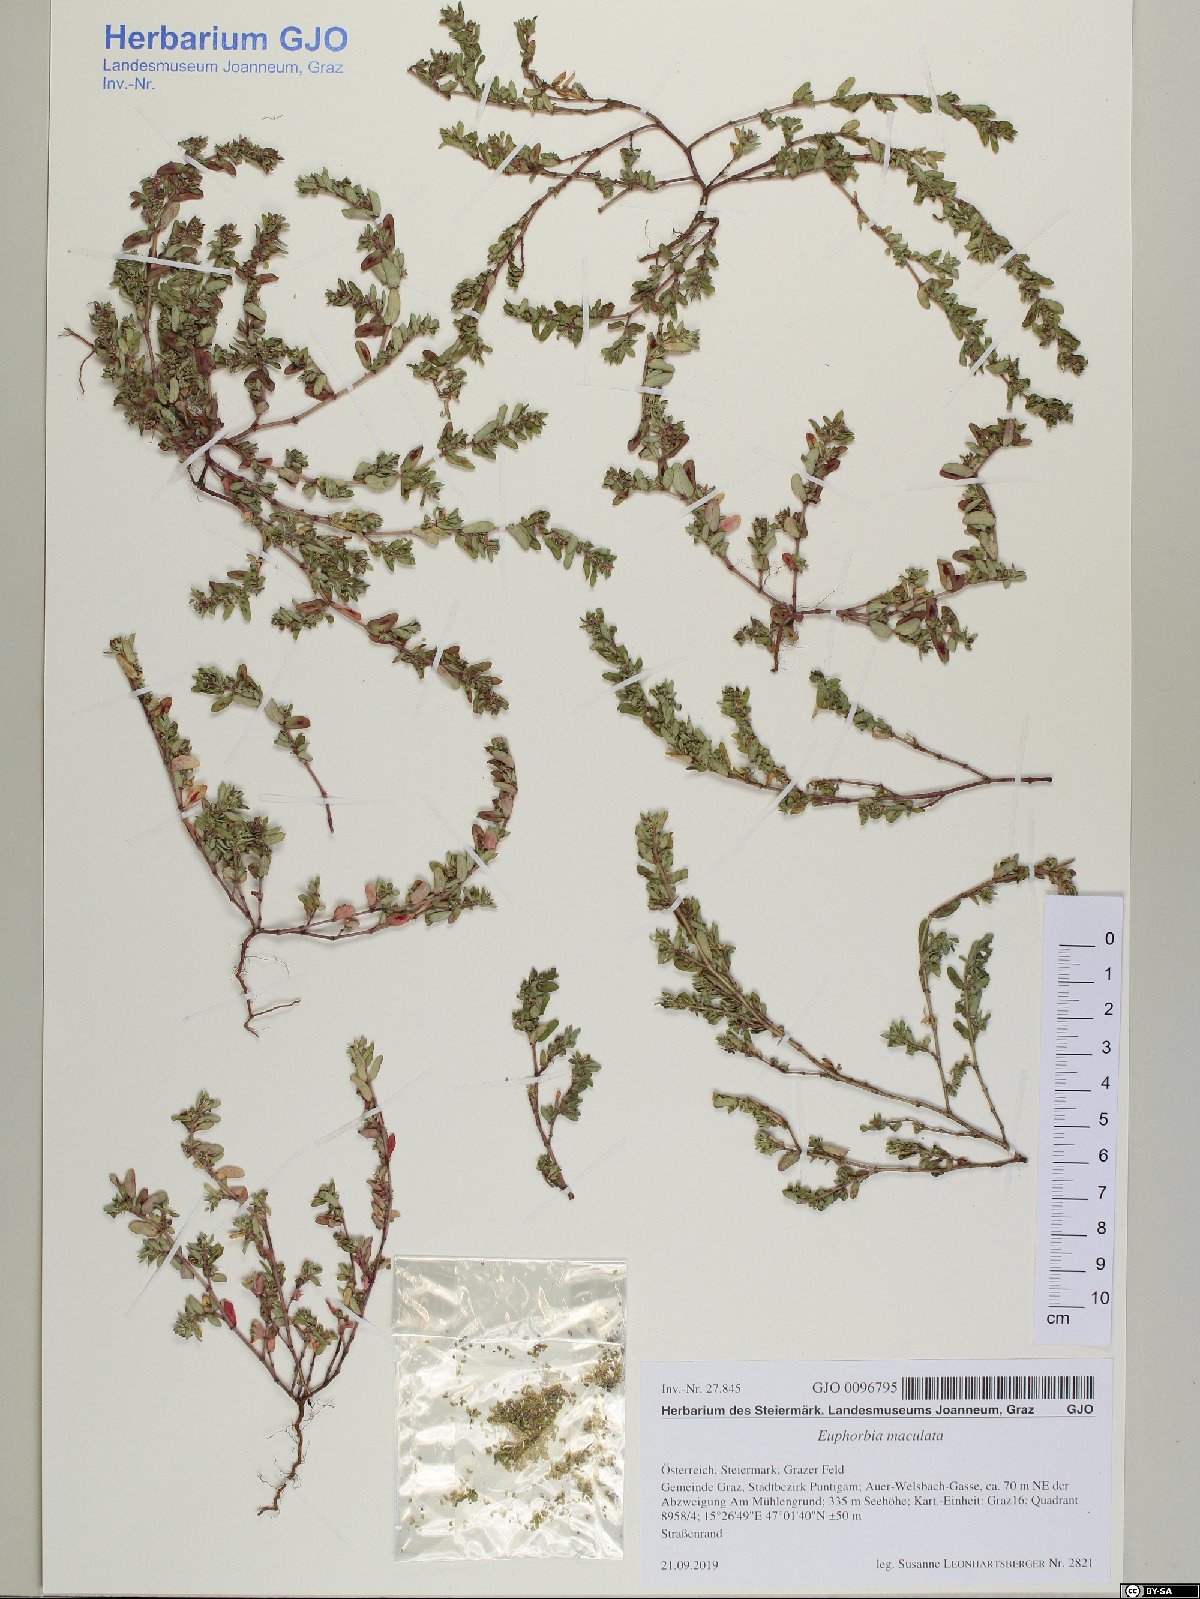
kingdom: Plantae
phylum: Tracheophyta
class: Magnoliopsida
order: Malpighiales
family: Euphorbiaceae
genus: Euphorbia
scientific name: Euphorbia maculata
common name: Spotted spurge
